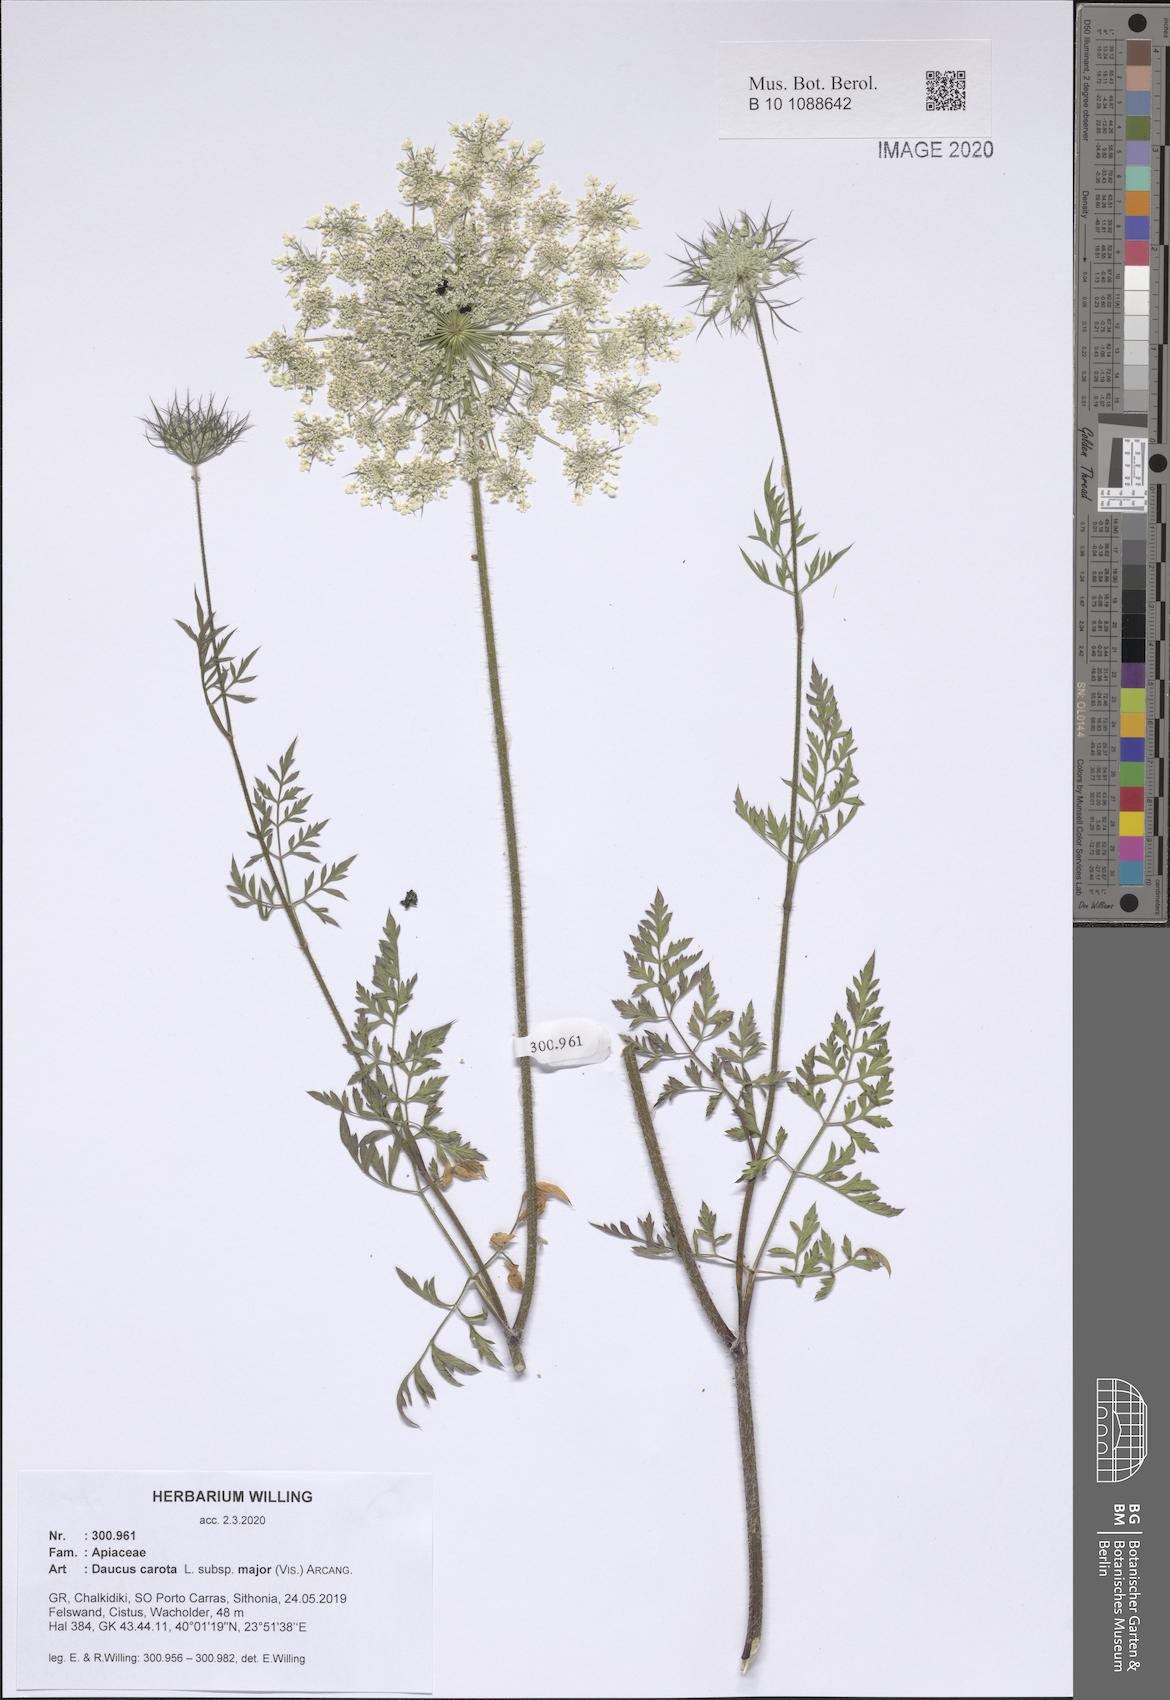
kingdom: Plantae
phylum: Tracheophyta
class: Magnoliopsida
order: Apiales
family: Apiaceae
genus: Daucus
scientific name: Daucus carota
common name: Wild carrot
